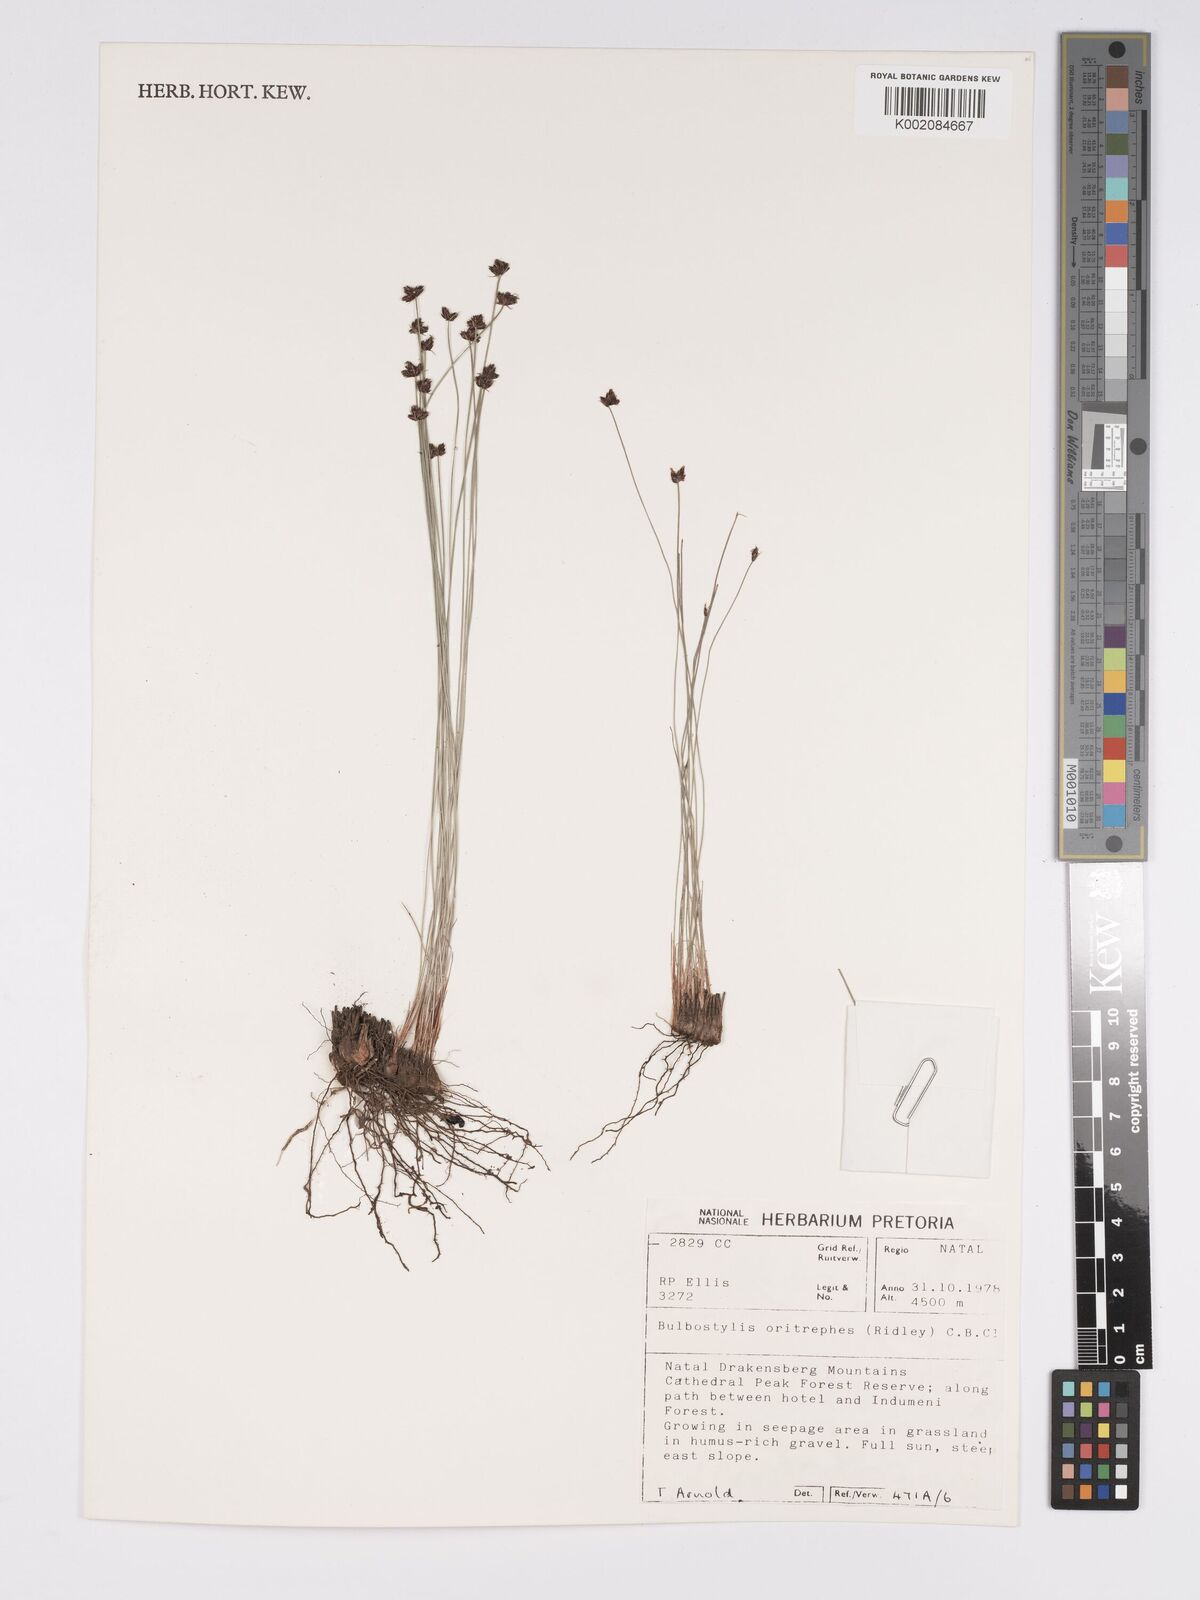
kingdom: Plantae
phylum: Tracheophyta
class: Liliopsida
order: Poales
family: Cyperaceae
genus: Bulbostylis
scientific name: Bulbostylis oritrephes
